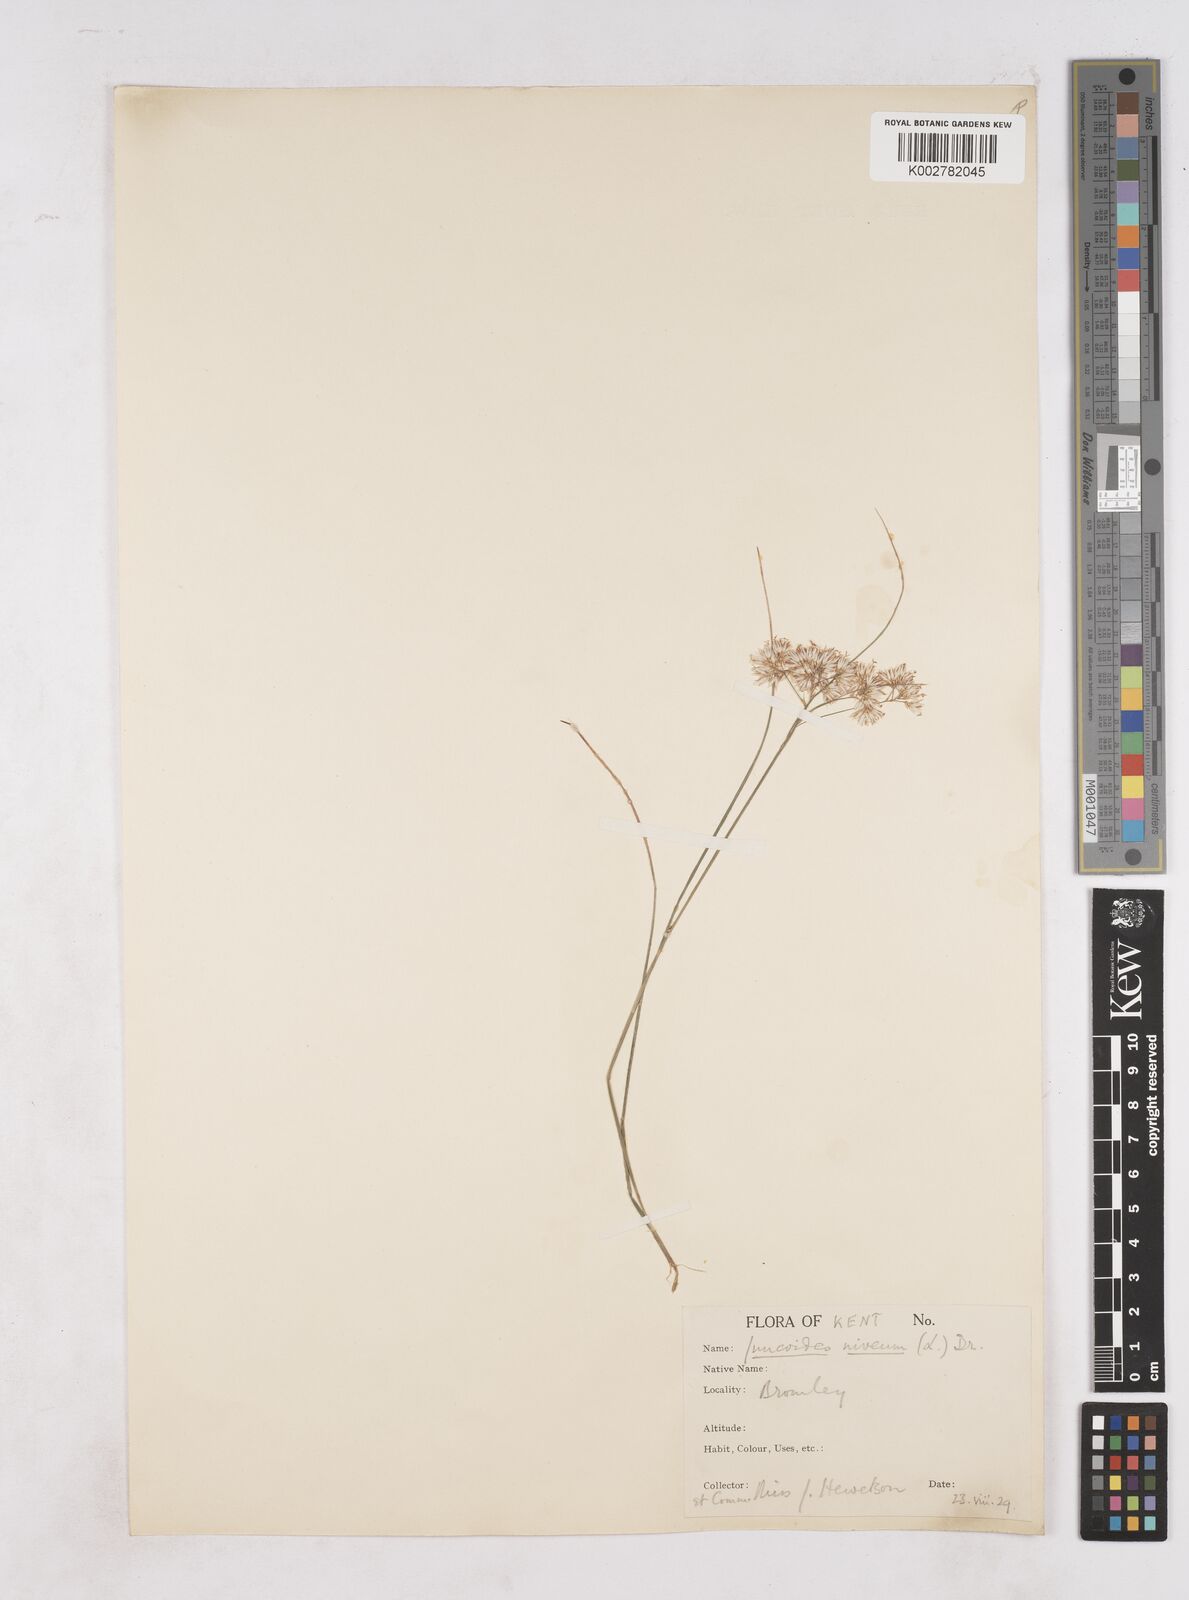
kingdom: Plantae
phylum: Tracheophyta
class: Liliopsida
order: Poales
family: Juncaceae
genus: Luzula
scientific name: Luzula nivea
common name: Snow-white wood-rush
